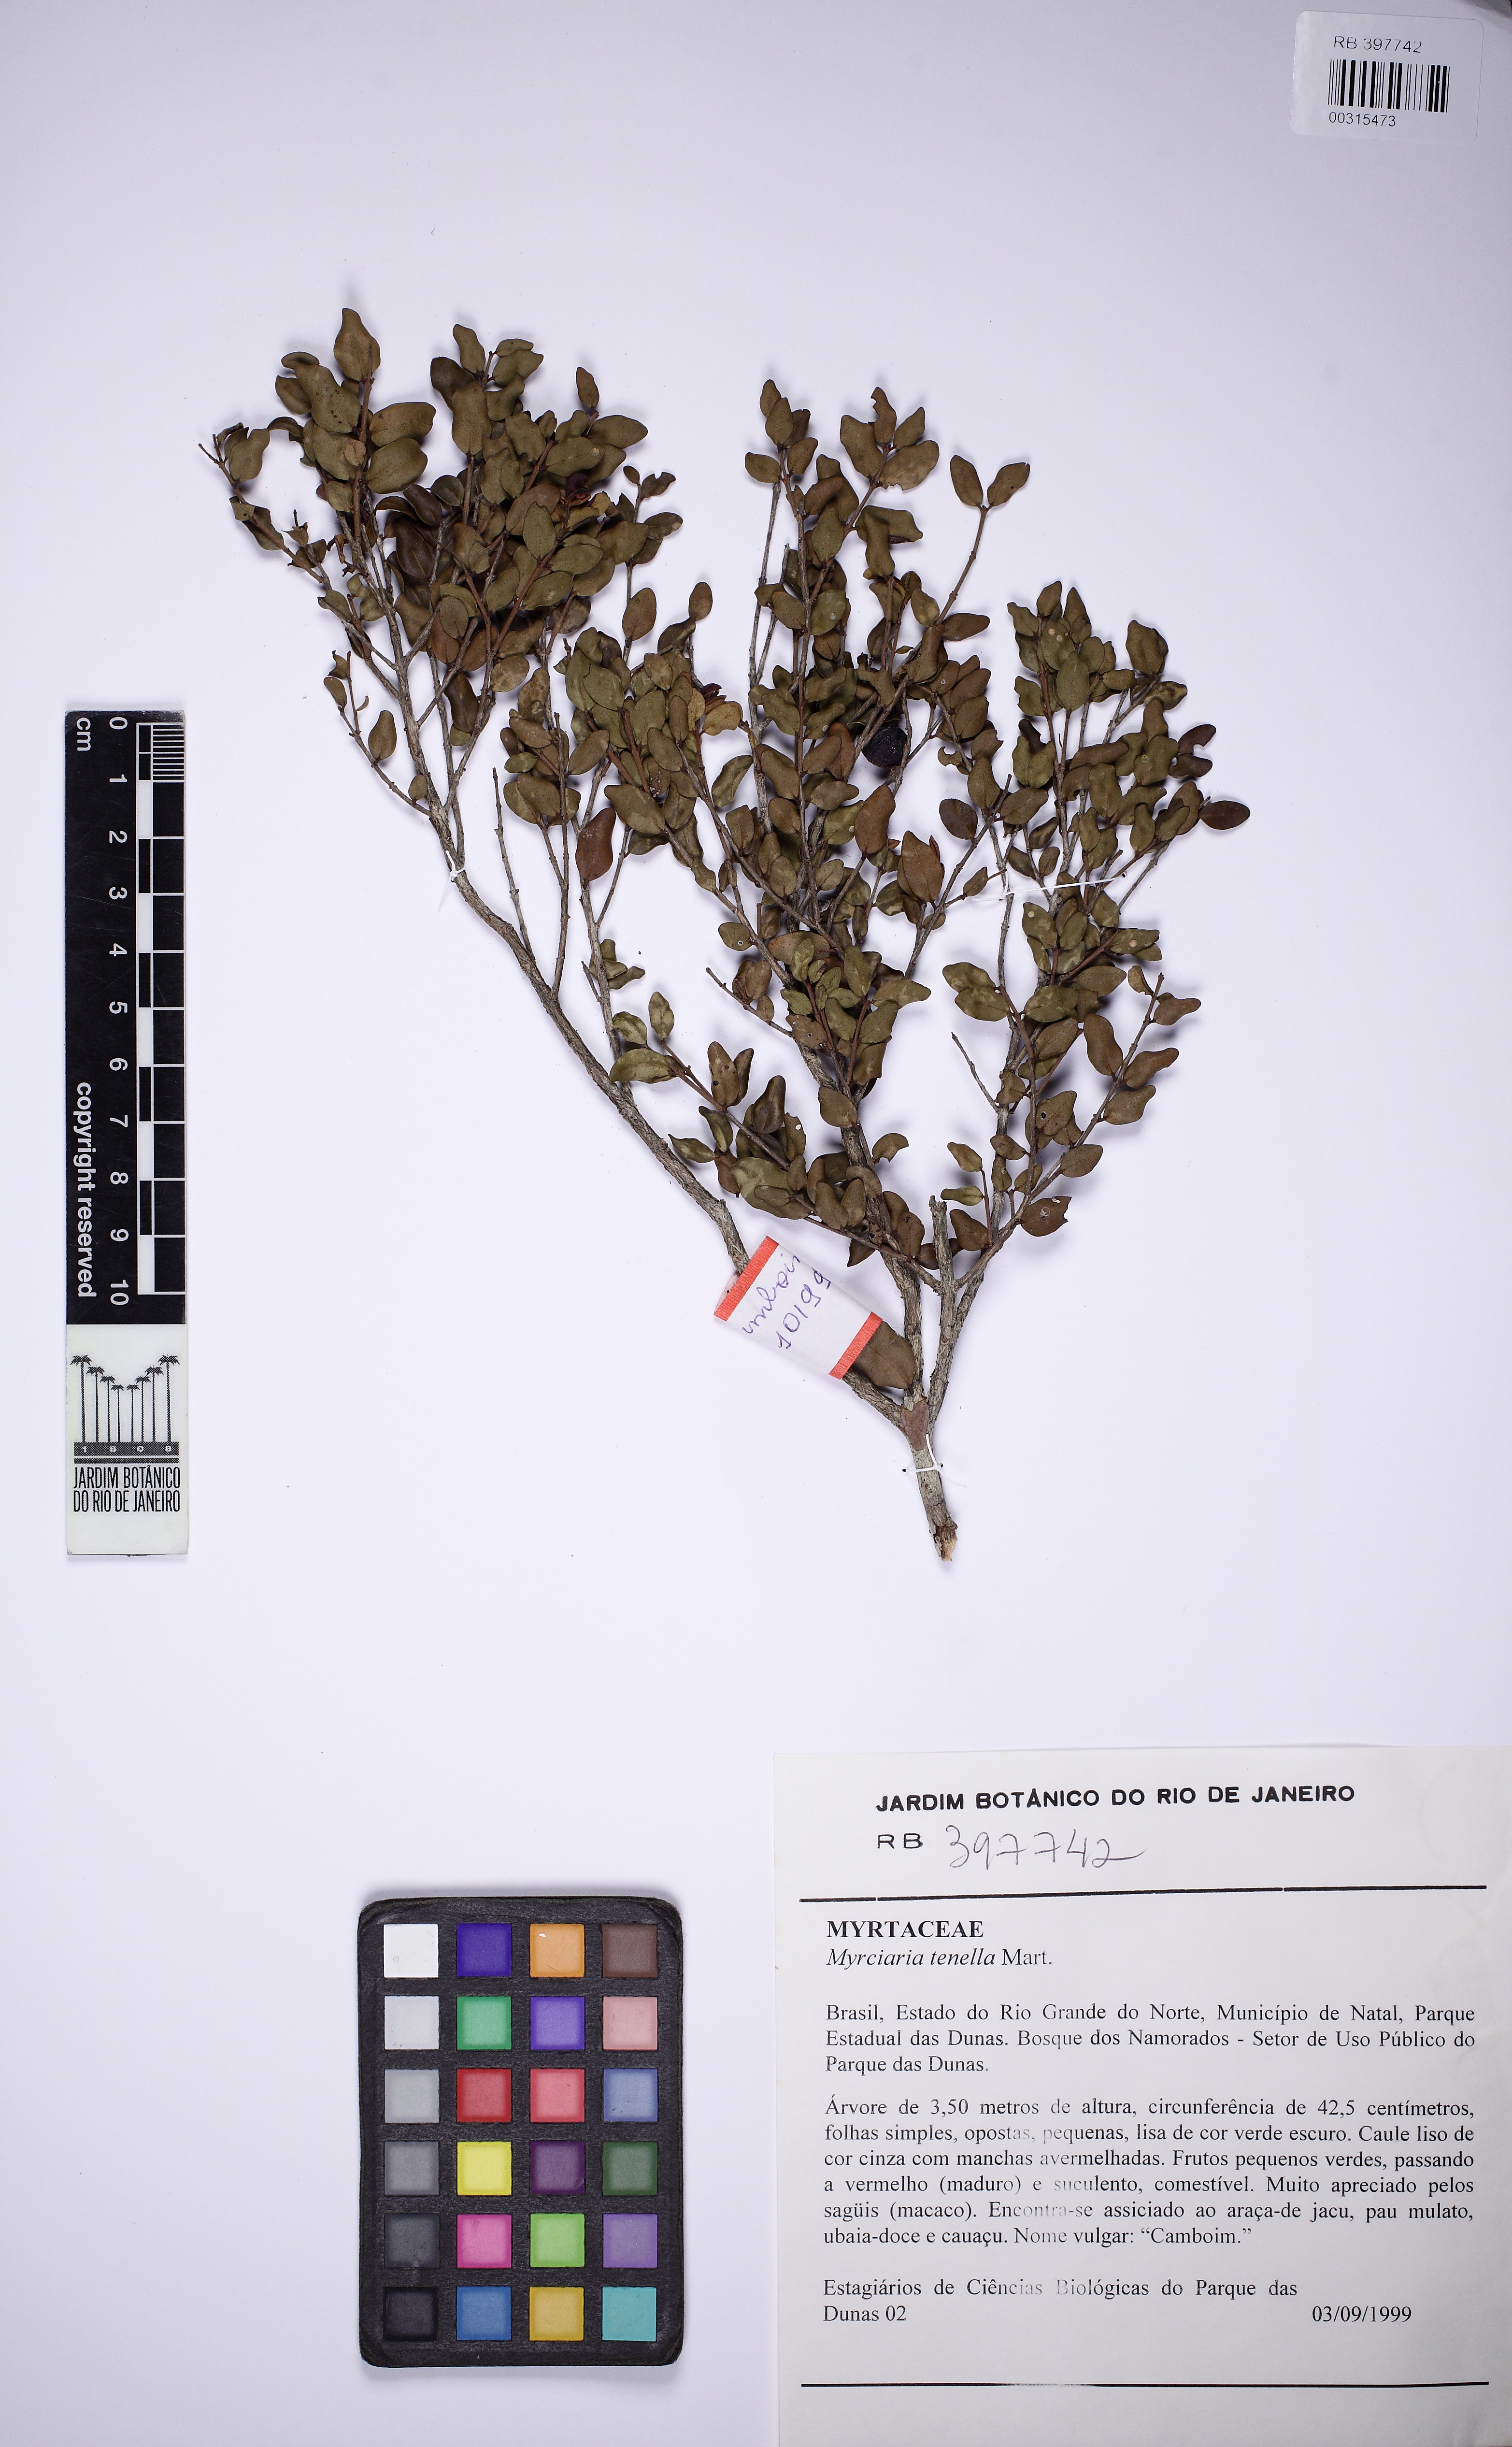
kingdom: Plantae
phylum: Tracheophyta
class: Magnoliopsida
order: Myrtales
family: Myrtaceae
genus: Myrciaria
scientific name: Myrciaria tenella
